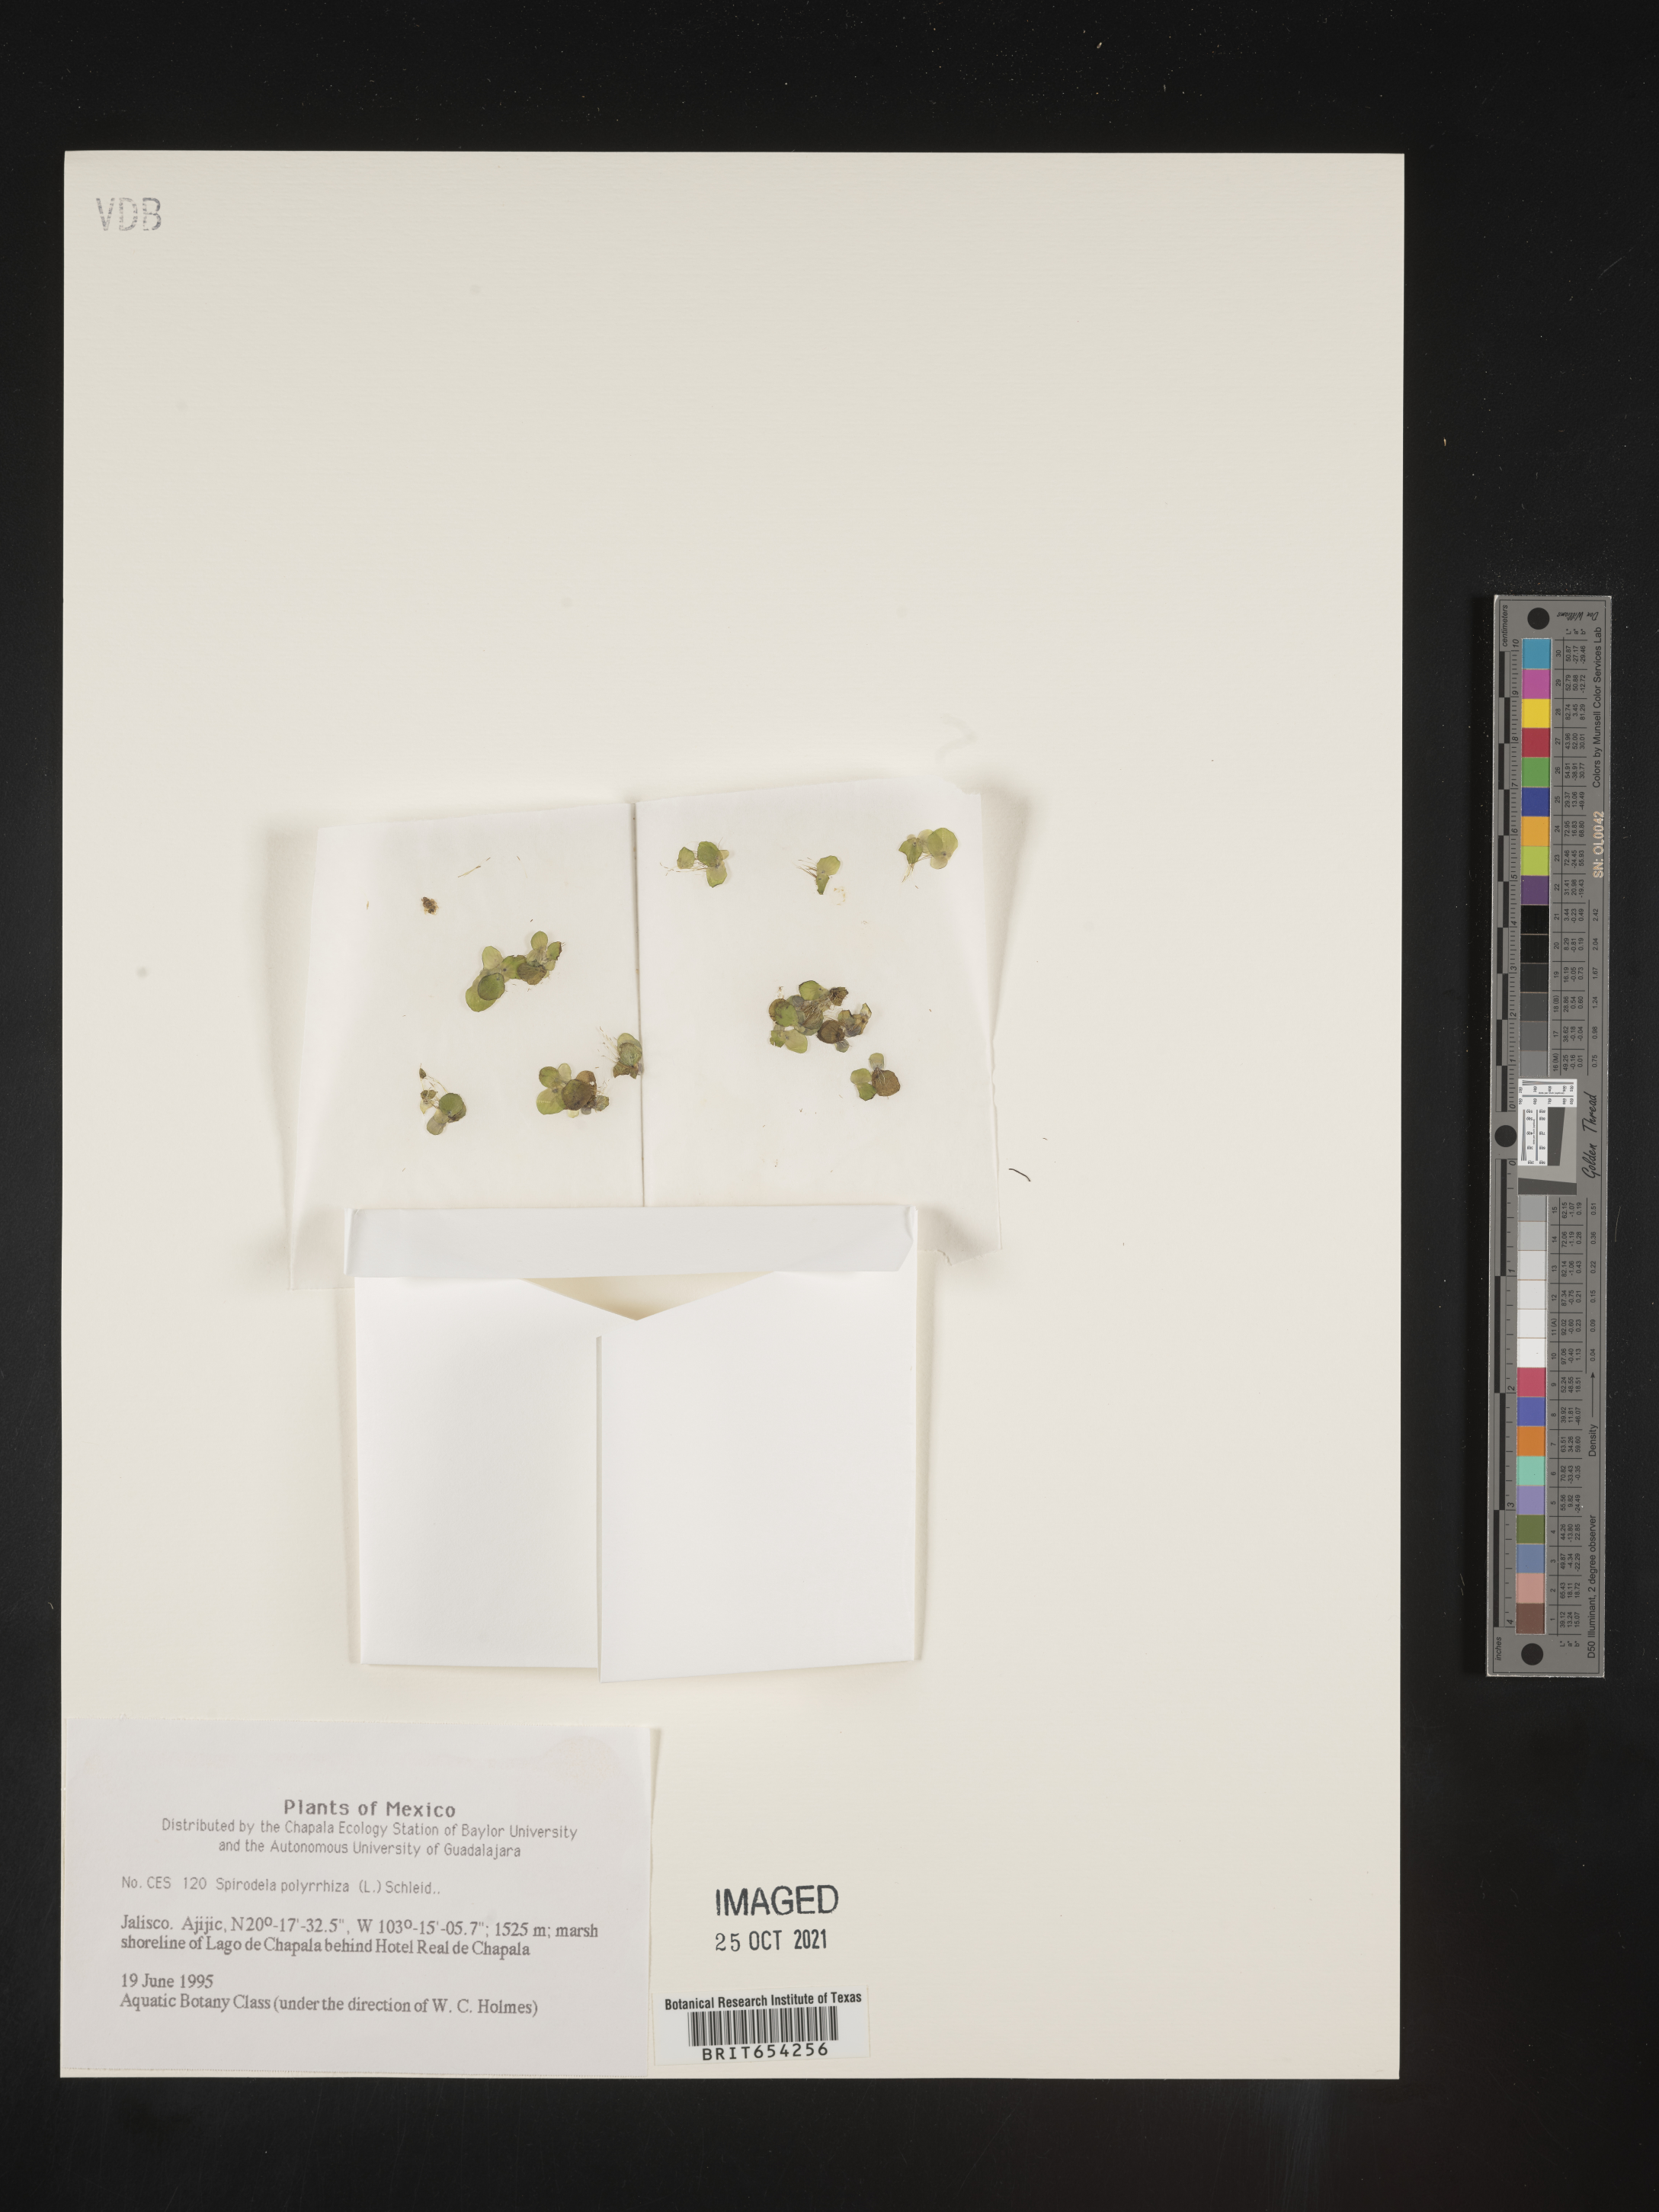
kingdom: Plantae
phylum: Tracheophyta
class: Liliopsida
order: Alismatales
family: Araceae
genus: Spirodela
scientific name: Spirodela
